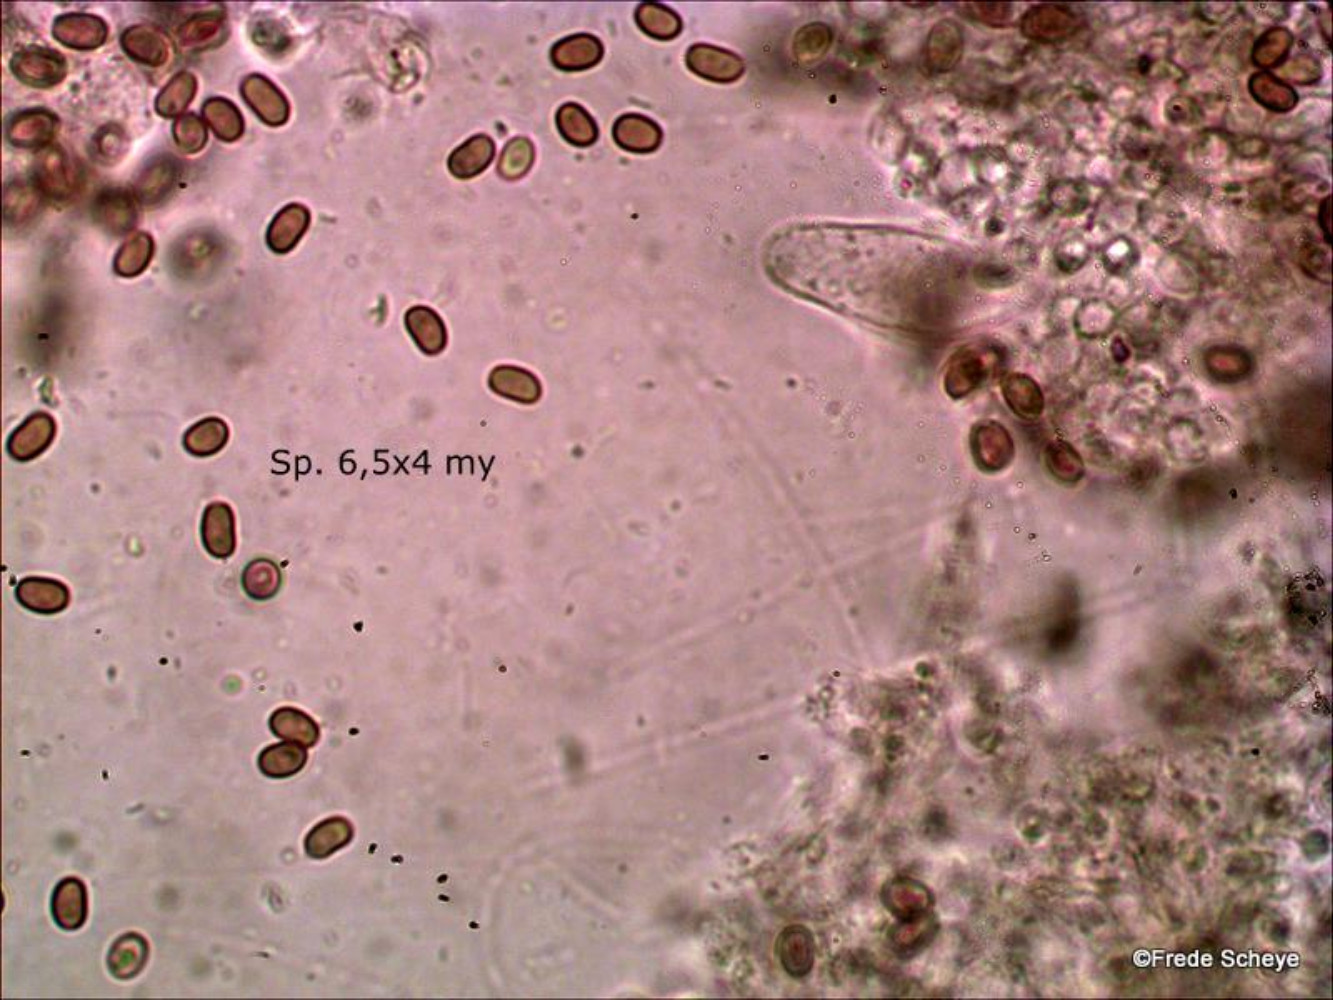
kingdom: Fungi
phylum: Basidiomycota
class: Agaricomycetes
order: Agaricales
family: Psathyrellaceae
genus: Psathyrella
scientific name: Psathyrella piluliformis
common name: lysstokket mørkhat
